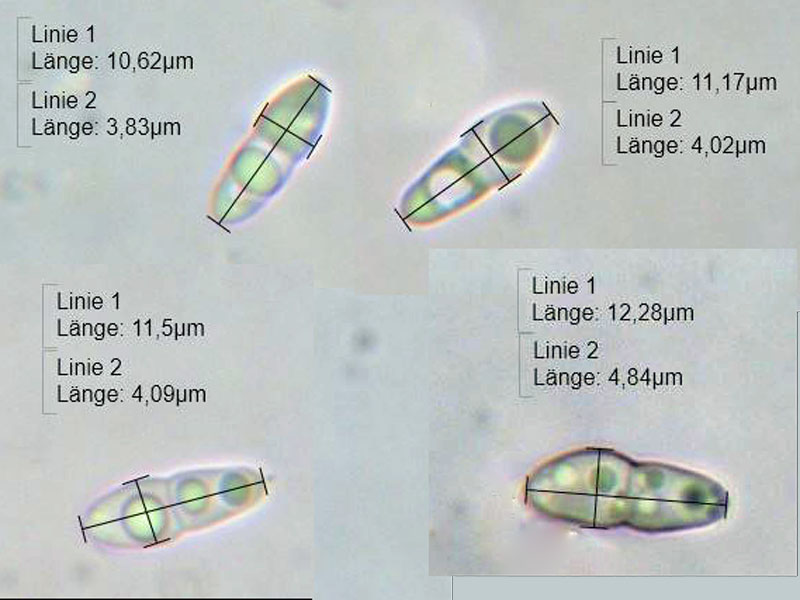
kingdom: Fungi
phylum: Ascomycota
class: Dothideomycetes
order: Asterinales
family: Asterinaceae
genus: Morenoina
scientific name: Morenoina phragmitis
